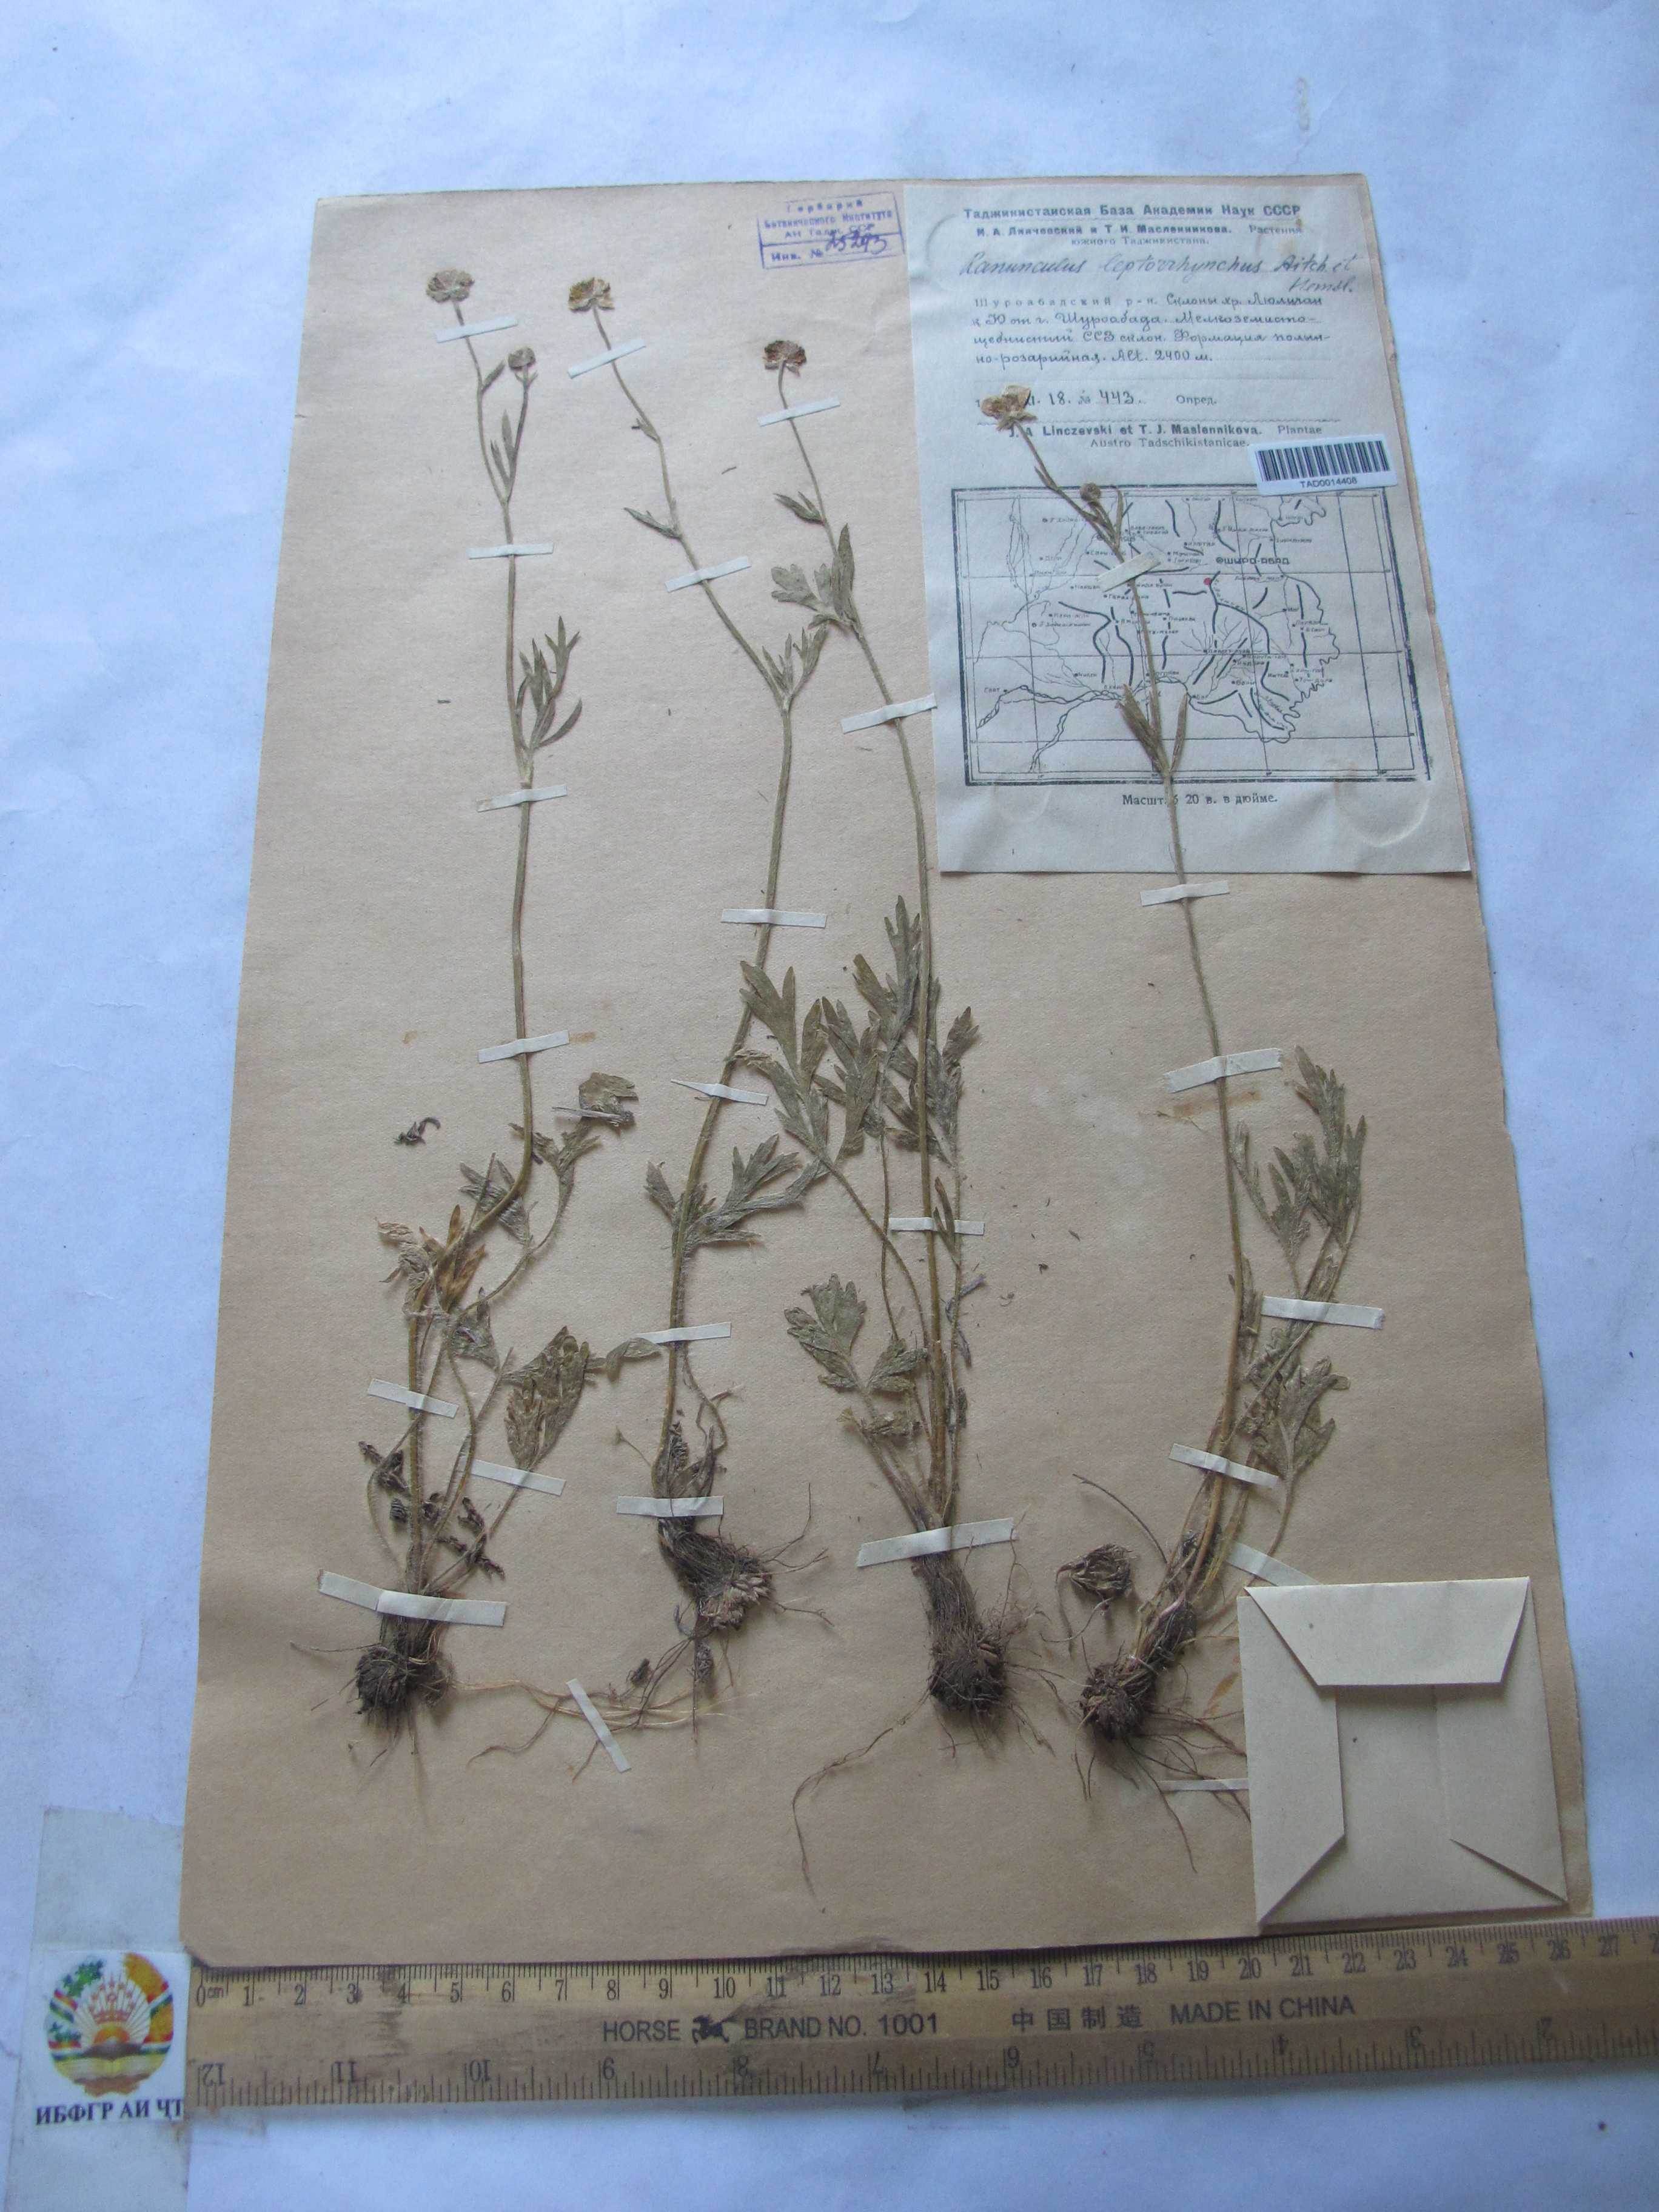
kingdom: Plantae
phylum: Tracheophyta
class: Magnoliopsida
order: Ranunculales
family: Ranunculaceae
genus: Ranunculus
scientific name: Ranunculus leptorrhynchus
